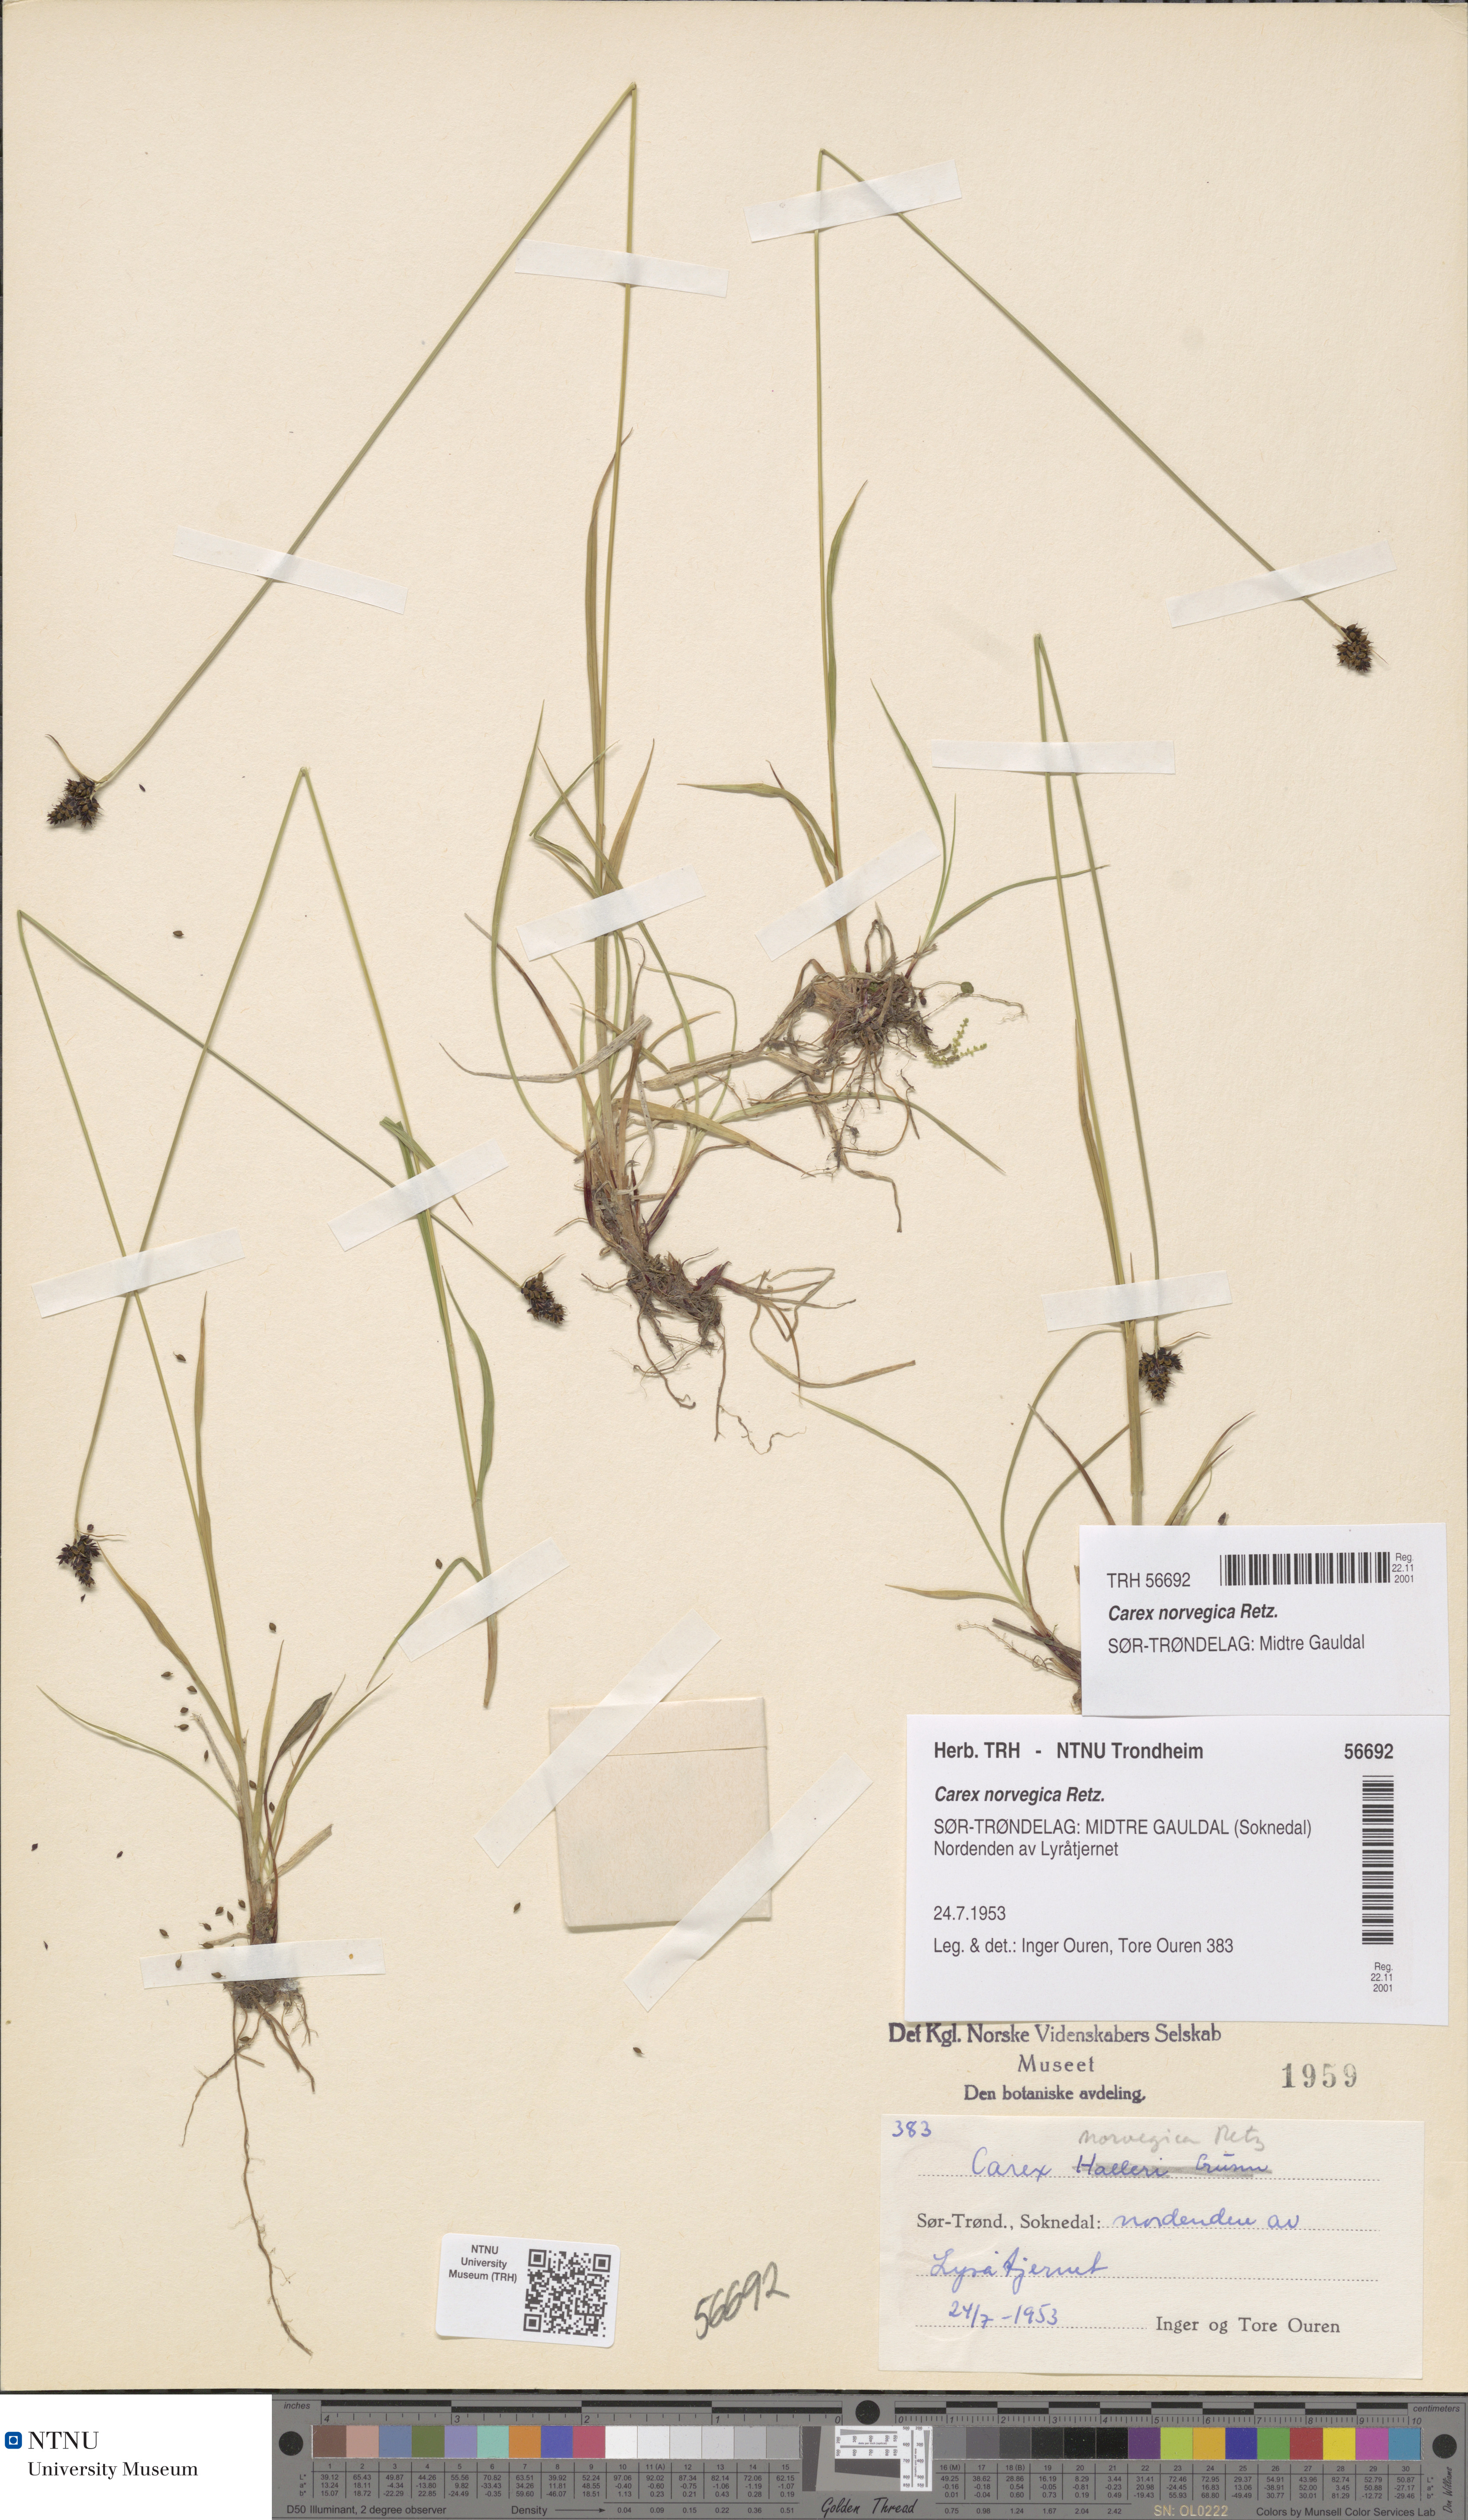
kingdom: Plantae
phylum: Tracheophyta
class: Liliopsida
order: Poales
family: Cyperaceae
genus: Carex
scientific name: Carex norvegica
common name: Close-headed alpine-sedge
